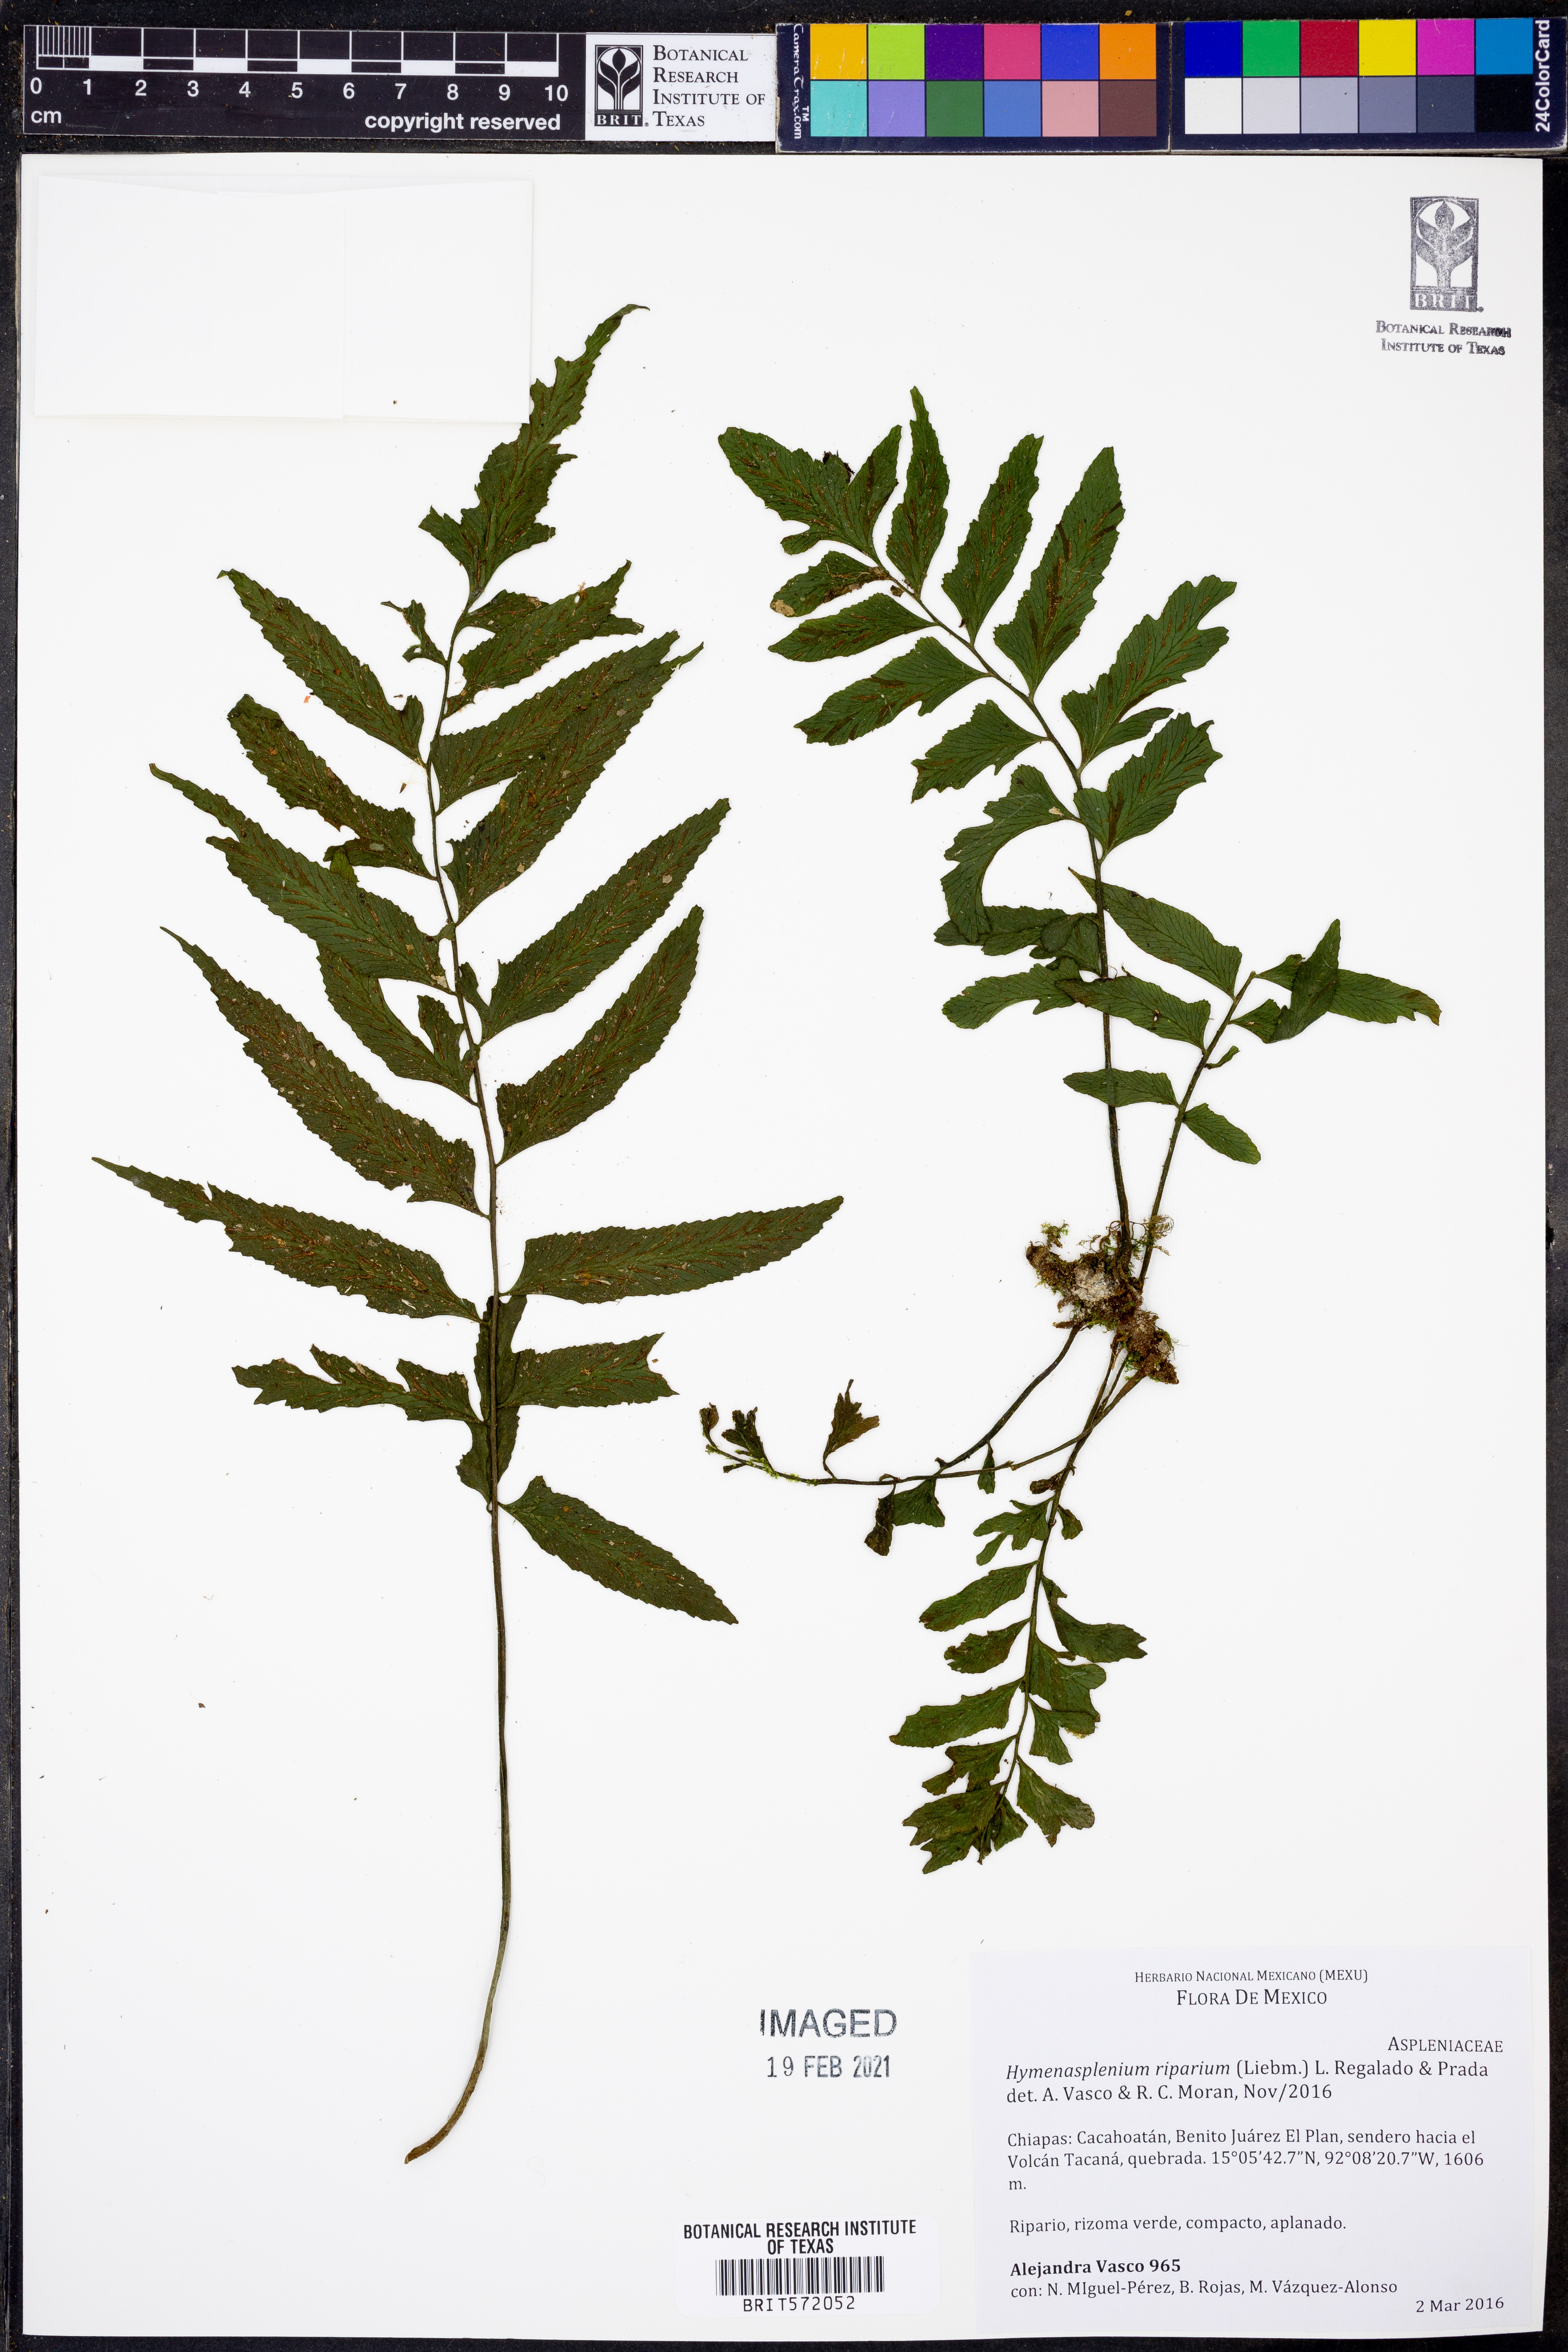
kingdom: Plantae
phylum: Tracheophyta
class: Polypodiopsida
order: Polypodiales
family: Aspleniaceae
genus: Hymenasplenium
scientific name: Hymenasplenium riparium
